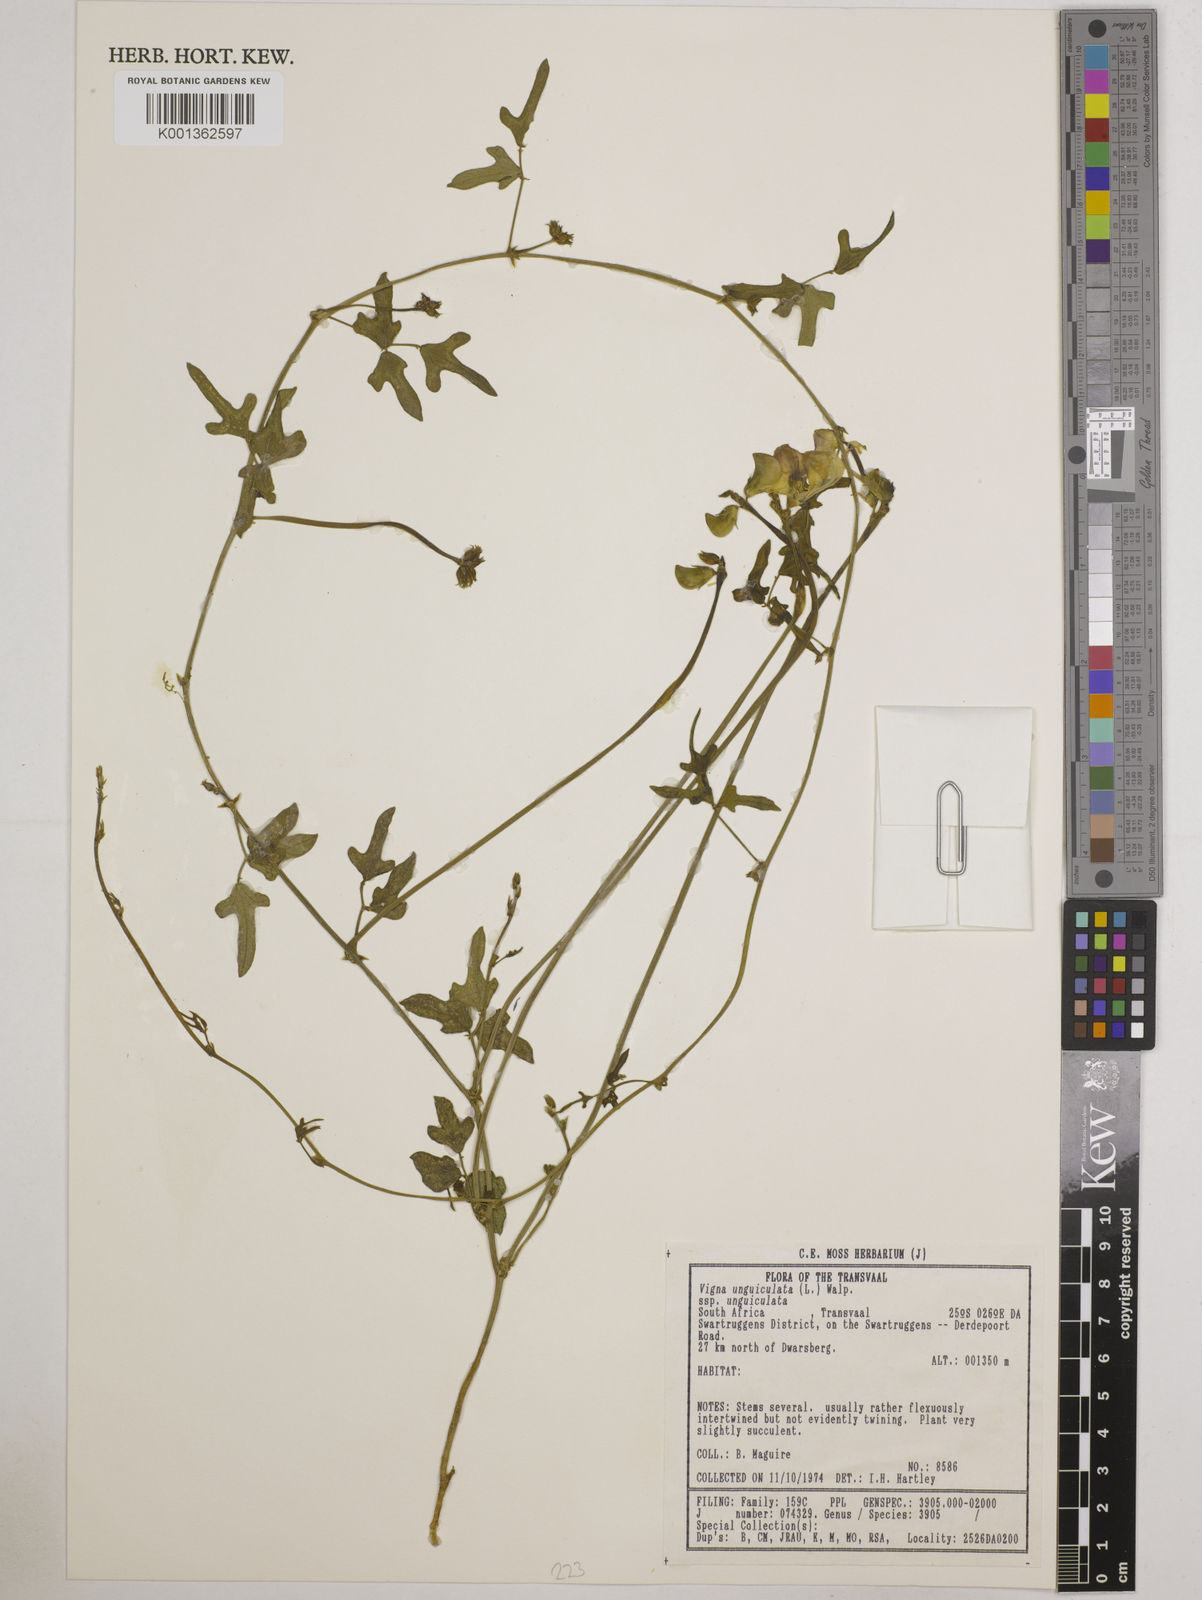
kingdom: Plantae
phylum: Tracheophyta
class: Magnoliopsida
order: Fabales
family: Fabaceae
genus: Vigna
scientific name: Vigna unguiculata
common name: Cowpea
